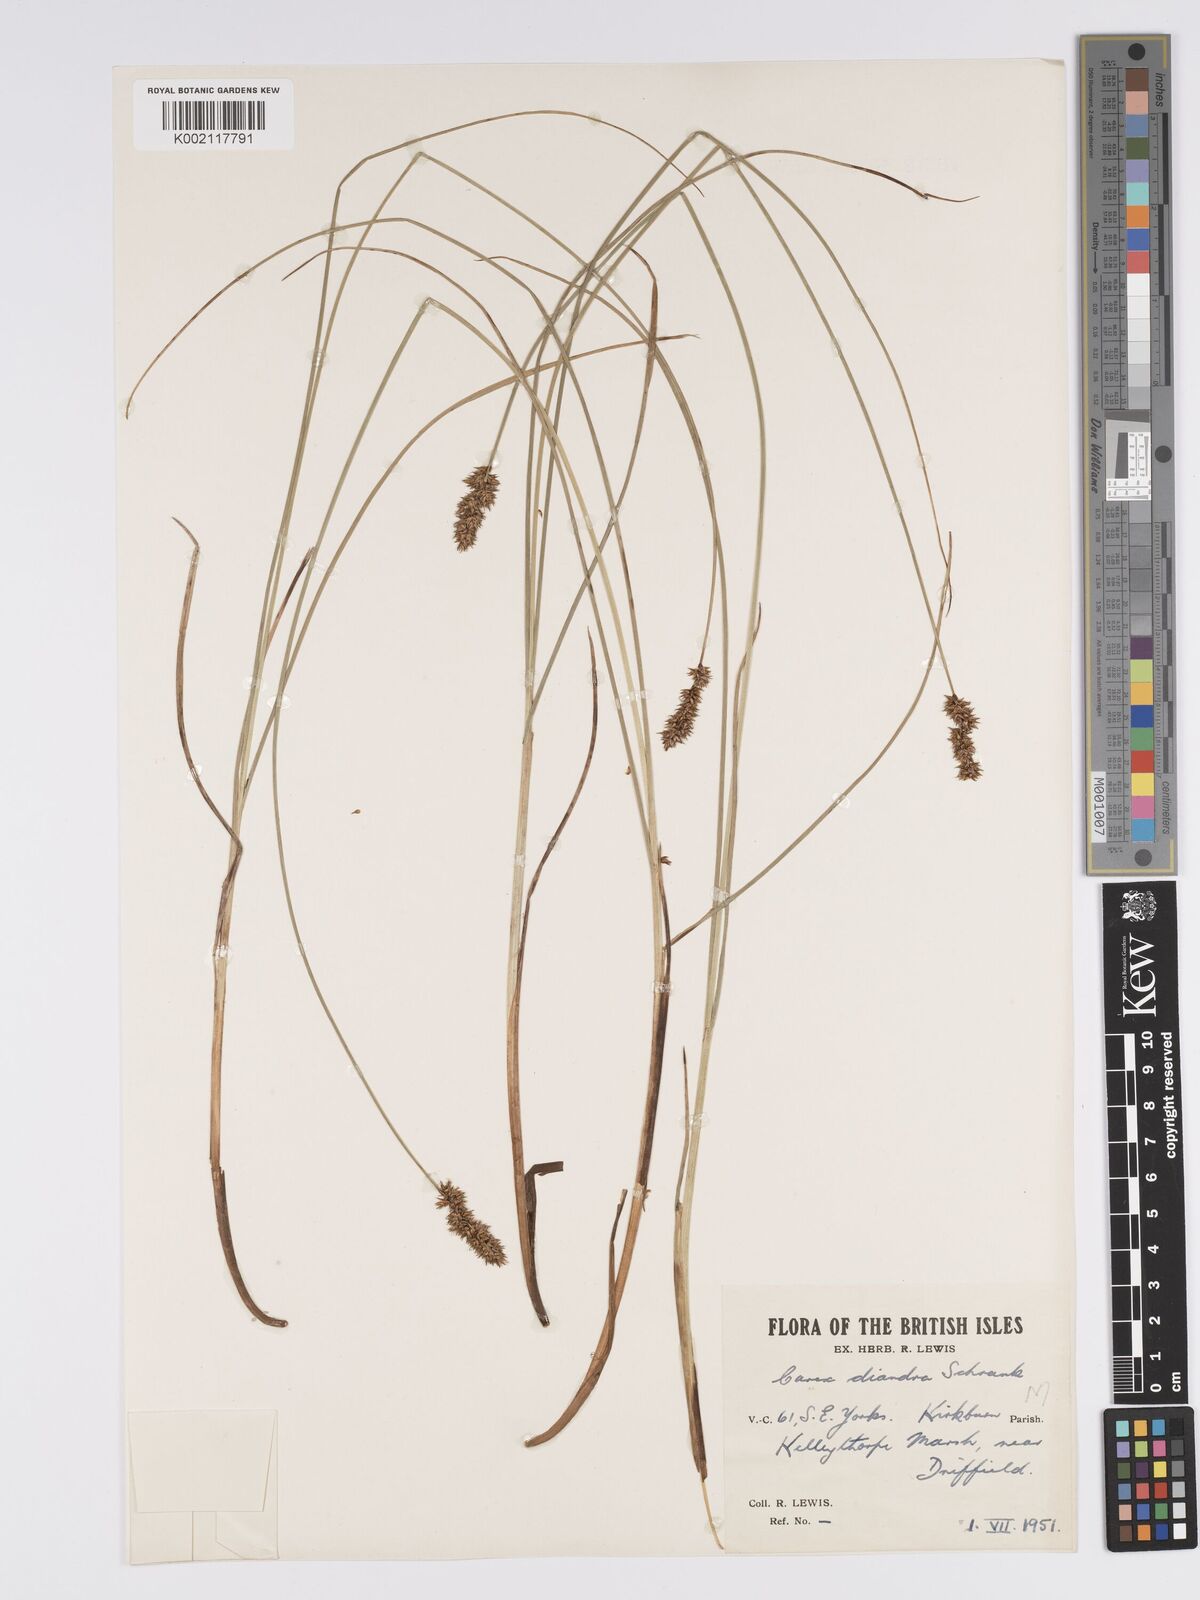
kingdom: Plantae
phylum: Tracheophyta
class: Liliopsida
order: Poales
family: Cyperaceae
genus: Carex
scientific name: Carex diandra
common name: Lesser tussock-sedge
